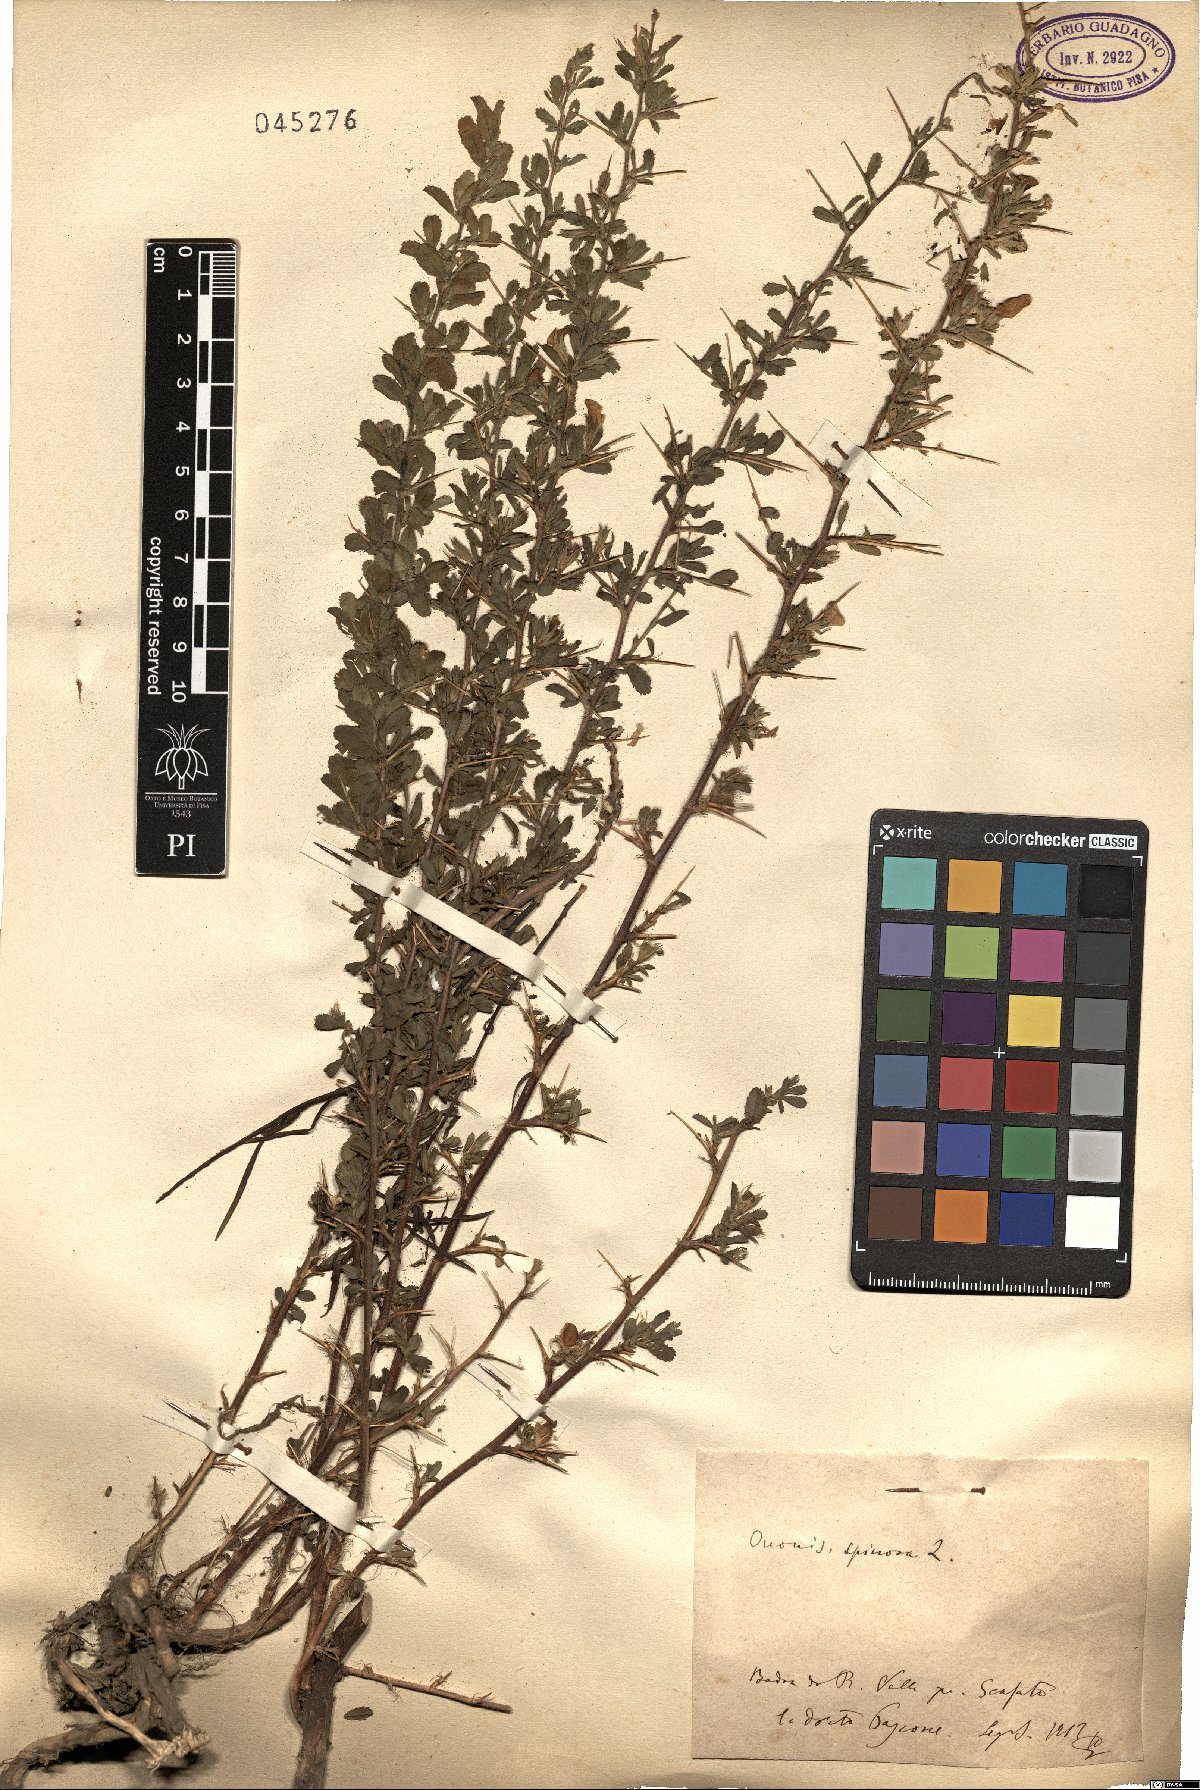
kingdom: Plantae
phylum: Tracheophyta
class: Magnoliopsida
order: Fabales
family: Fabaceae
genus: Ononis
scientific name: Ononis spinosa
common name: Spiny restharrow
